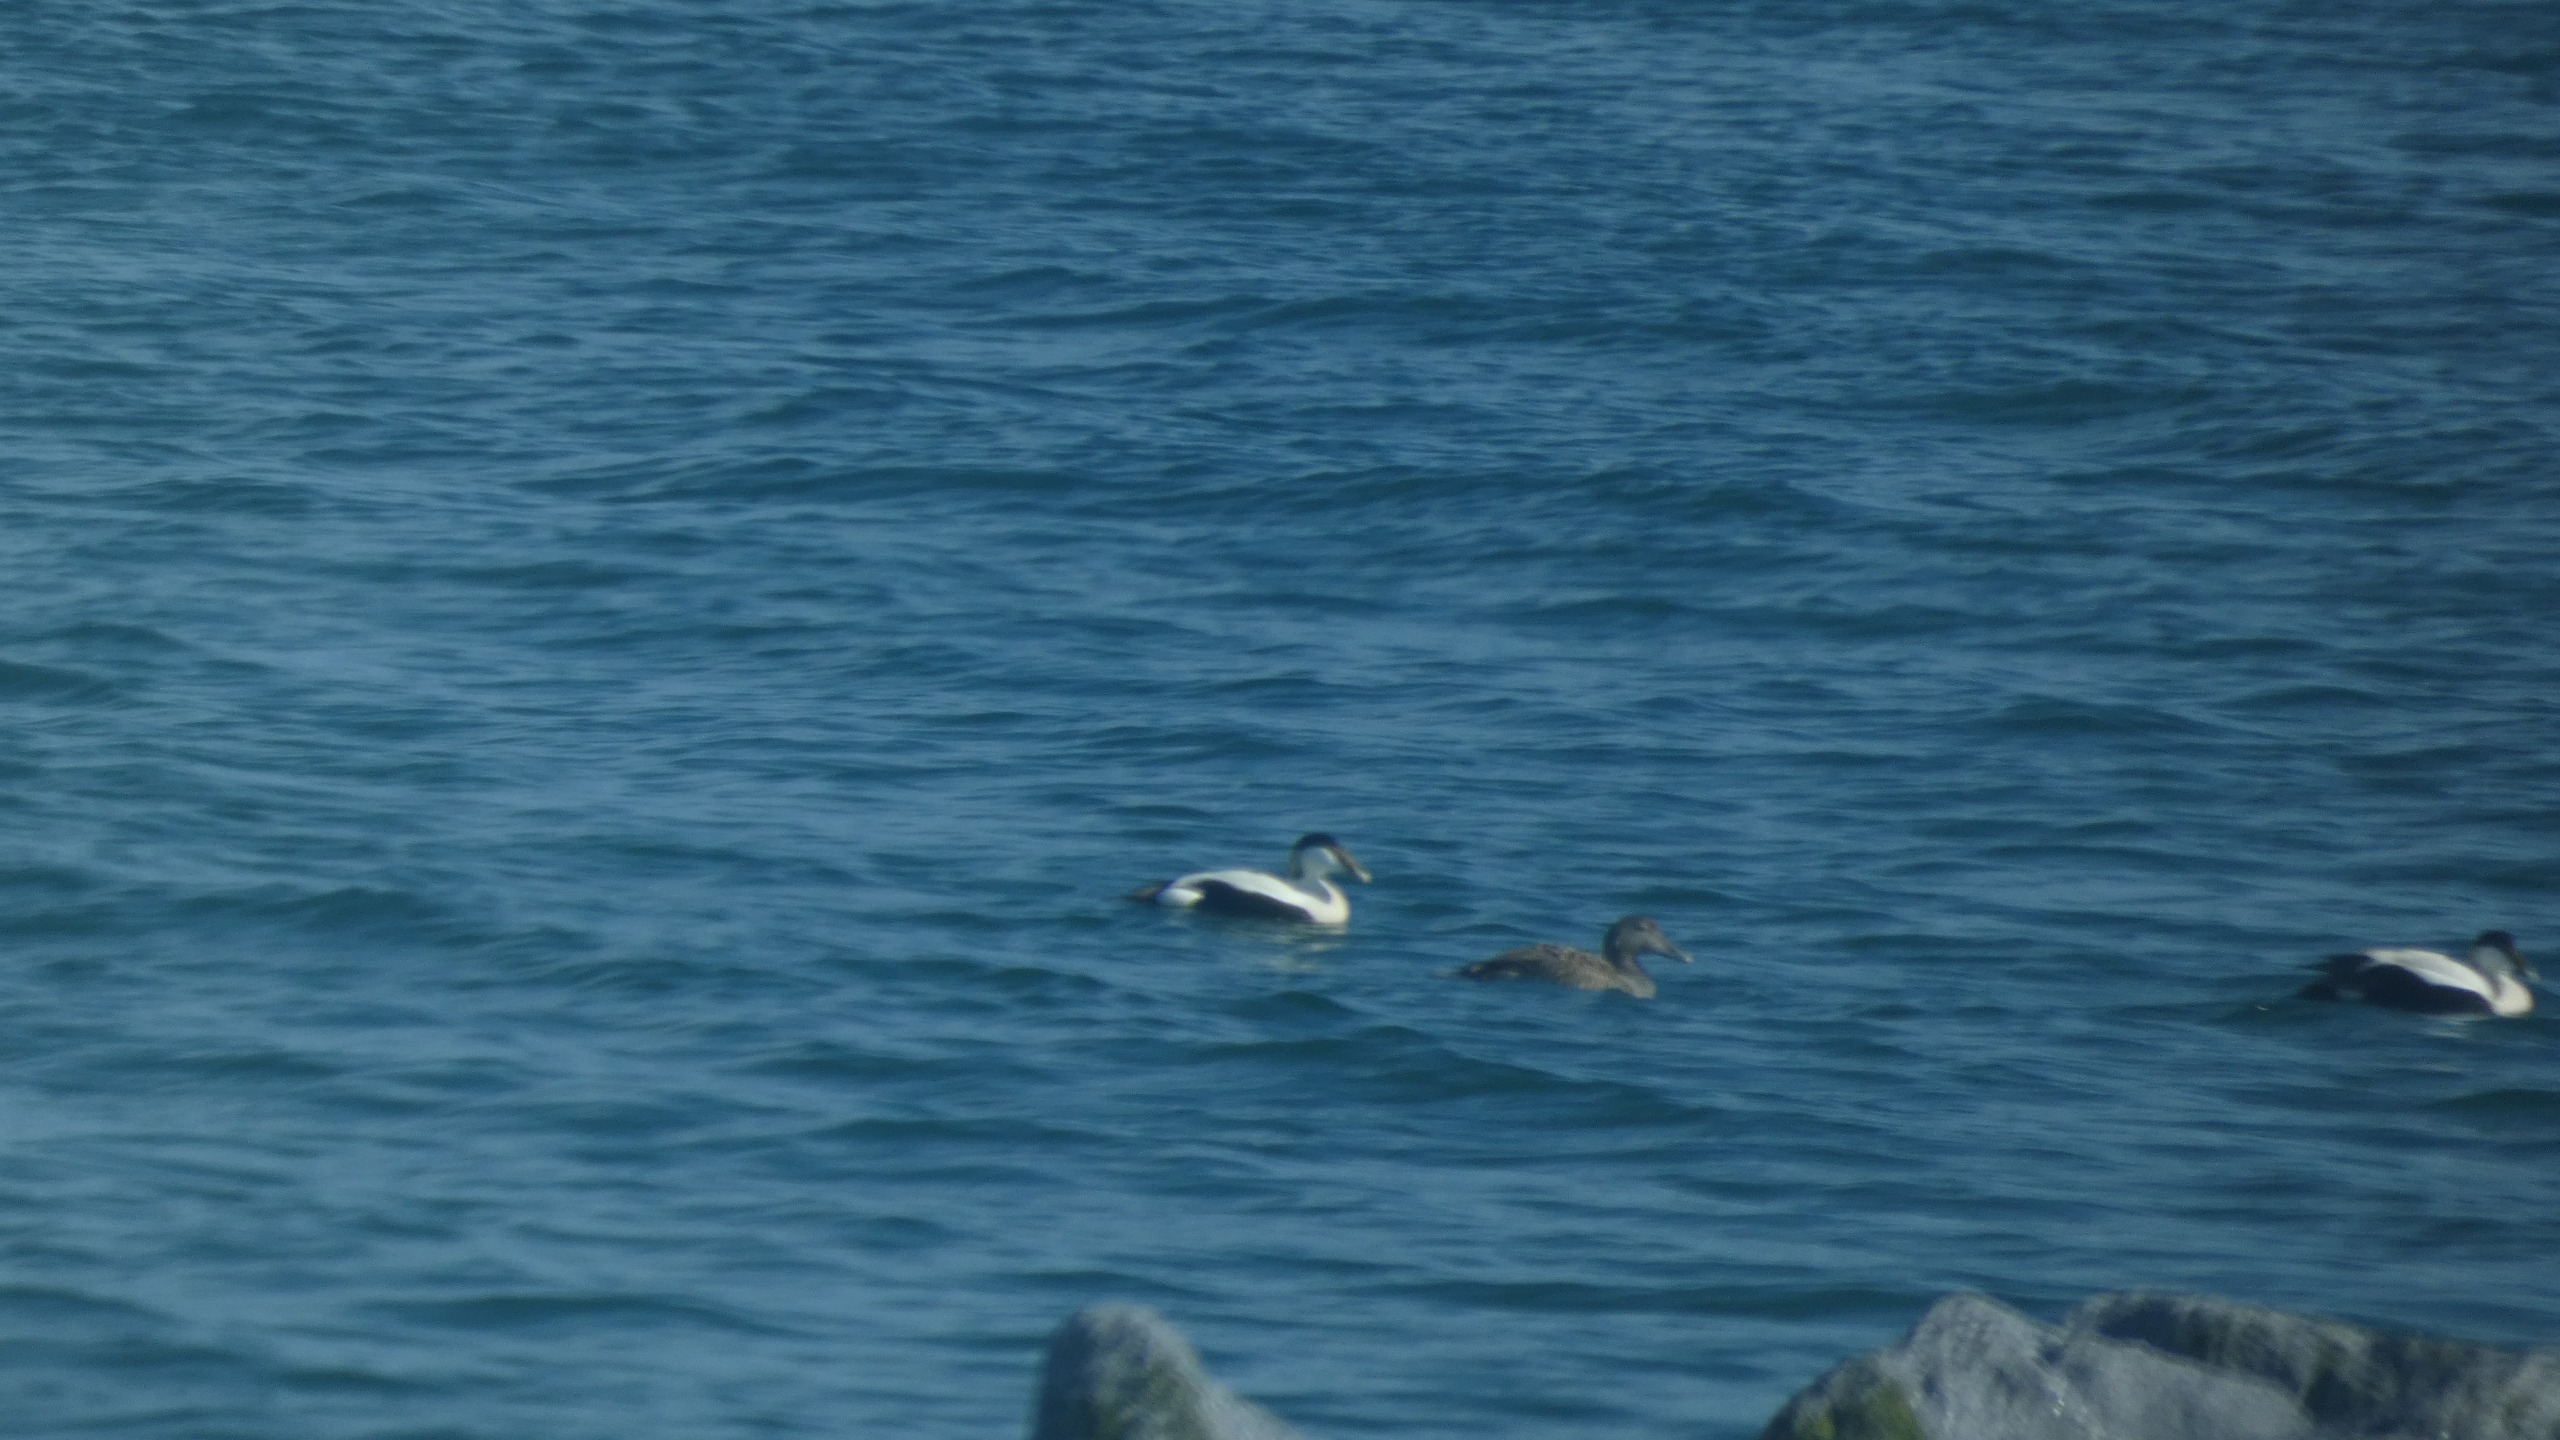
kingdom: Animalia
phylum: Chordata
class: Aves
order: Anseriformes
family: Anatidae
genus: Somateria
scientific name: Somateria mollissima
